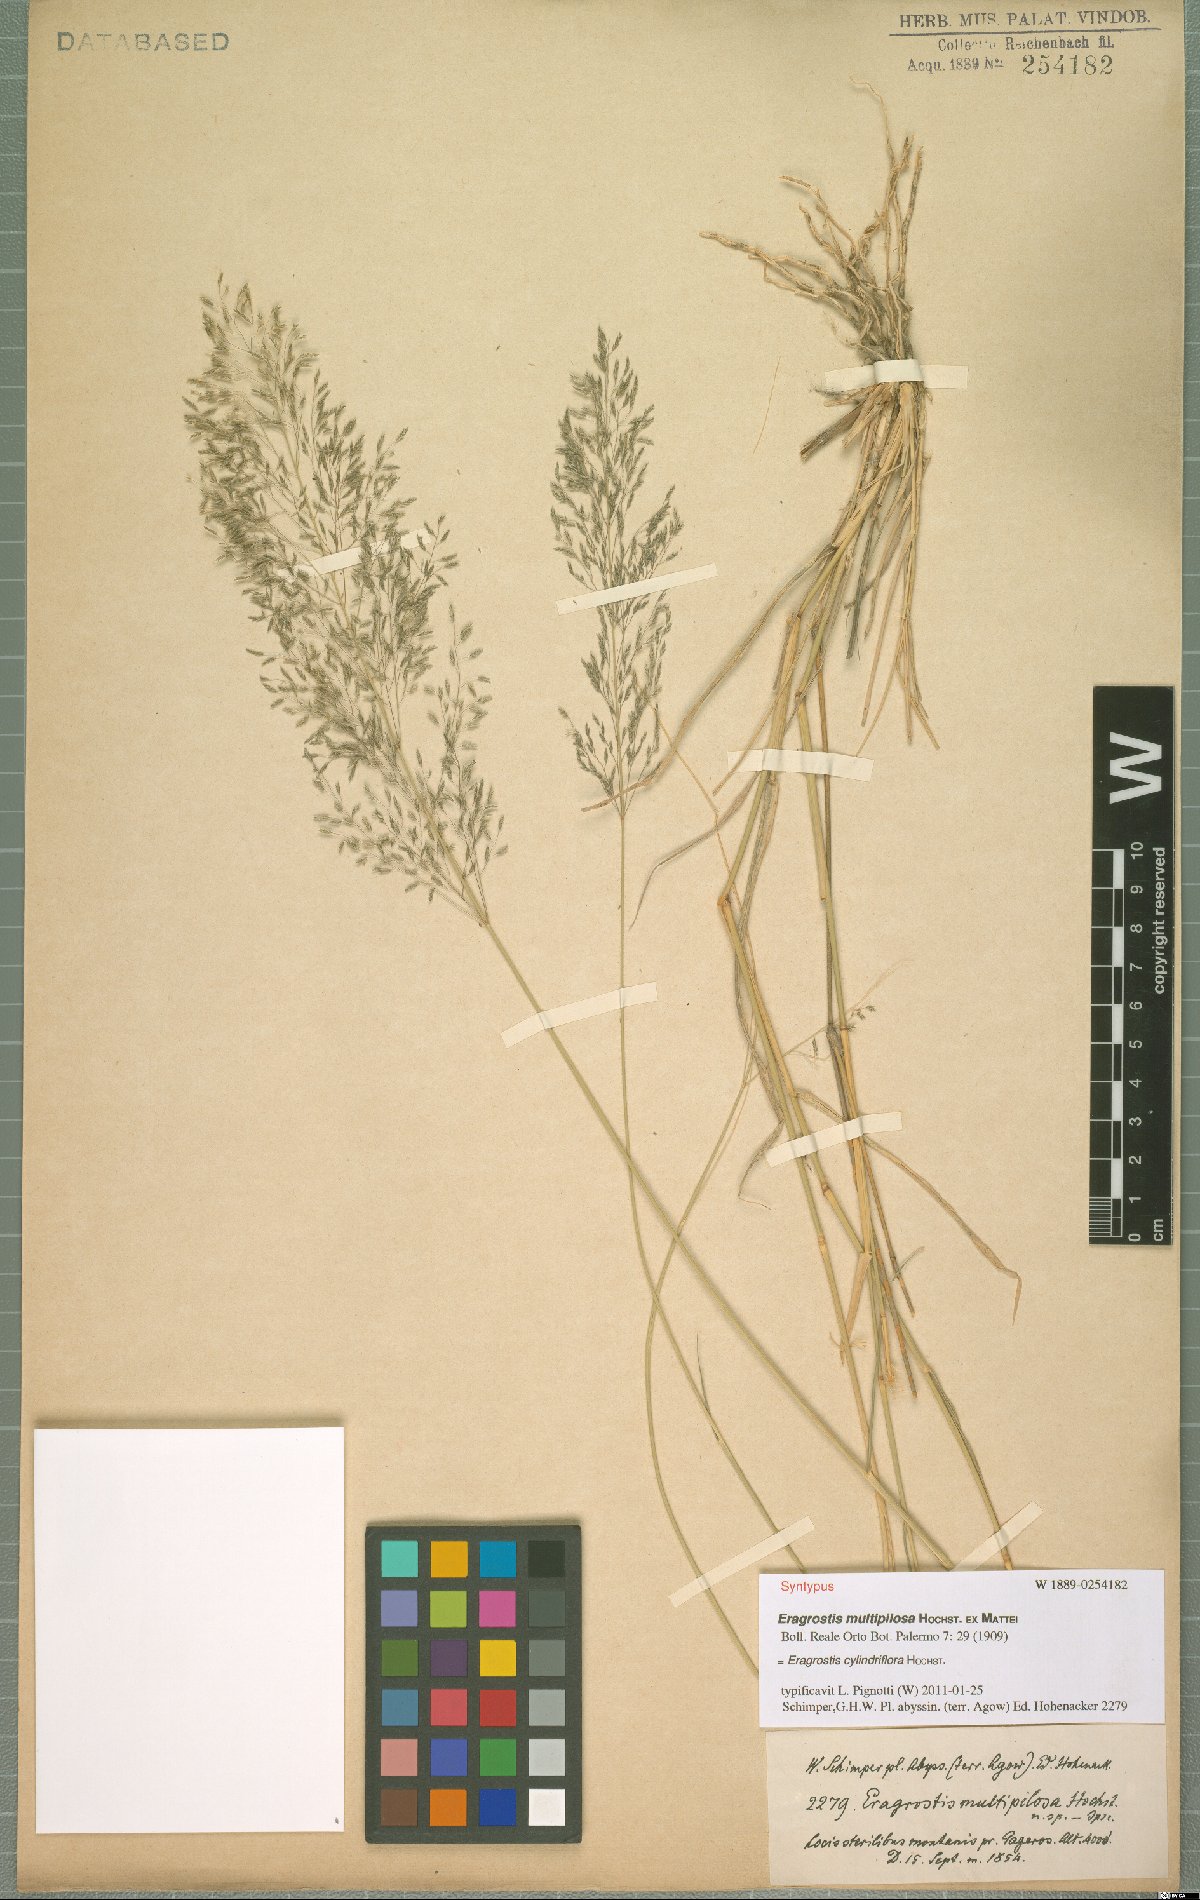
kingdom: Plantae
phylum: Tracheophyta
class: Liliopsida
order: Poales
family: Poaceae
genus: Eragrostis
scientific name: Eragrostis cylindriflora
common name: Cylinderflower lovegrass
